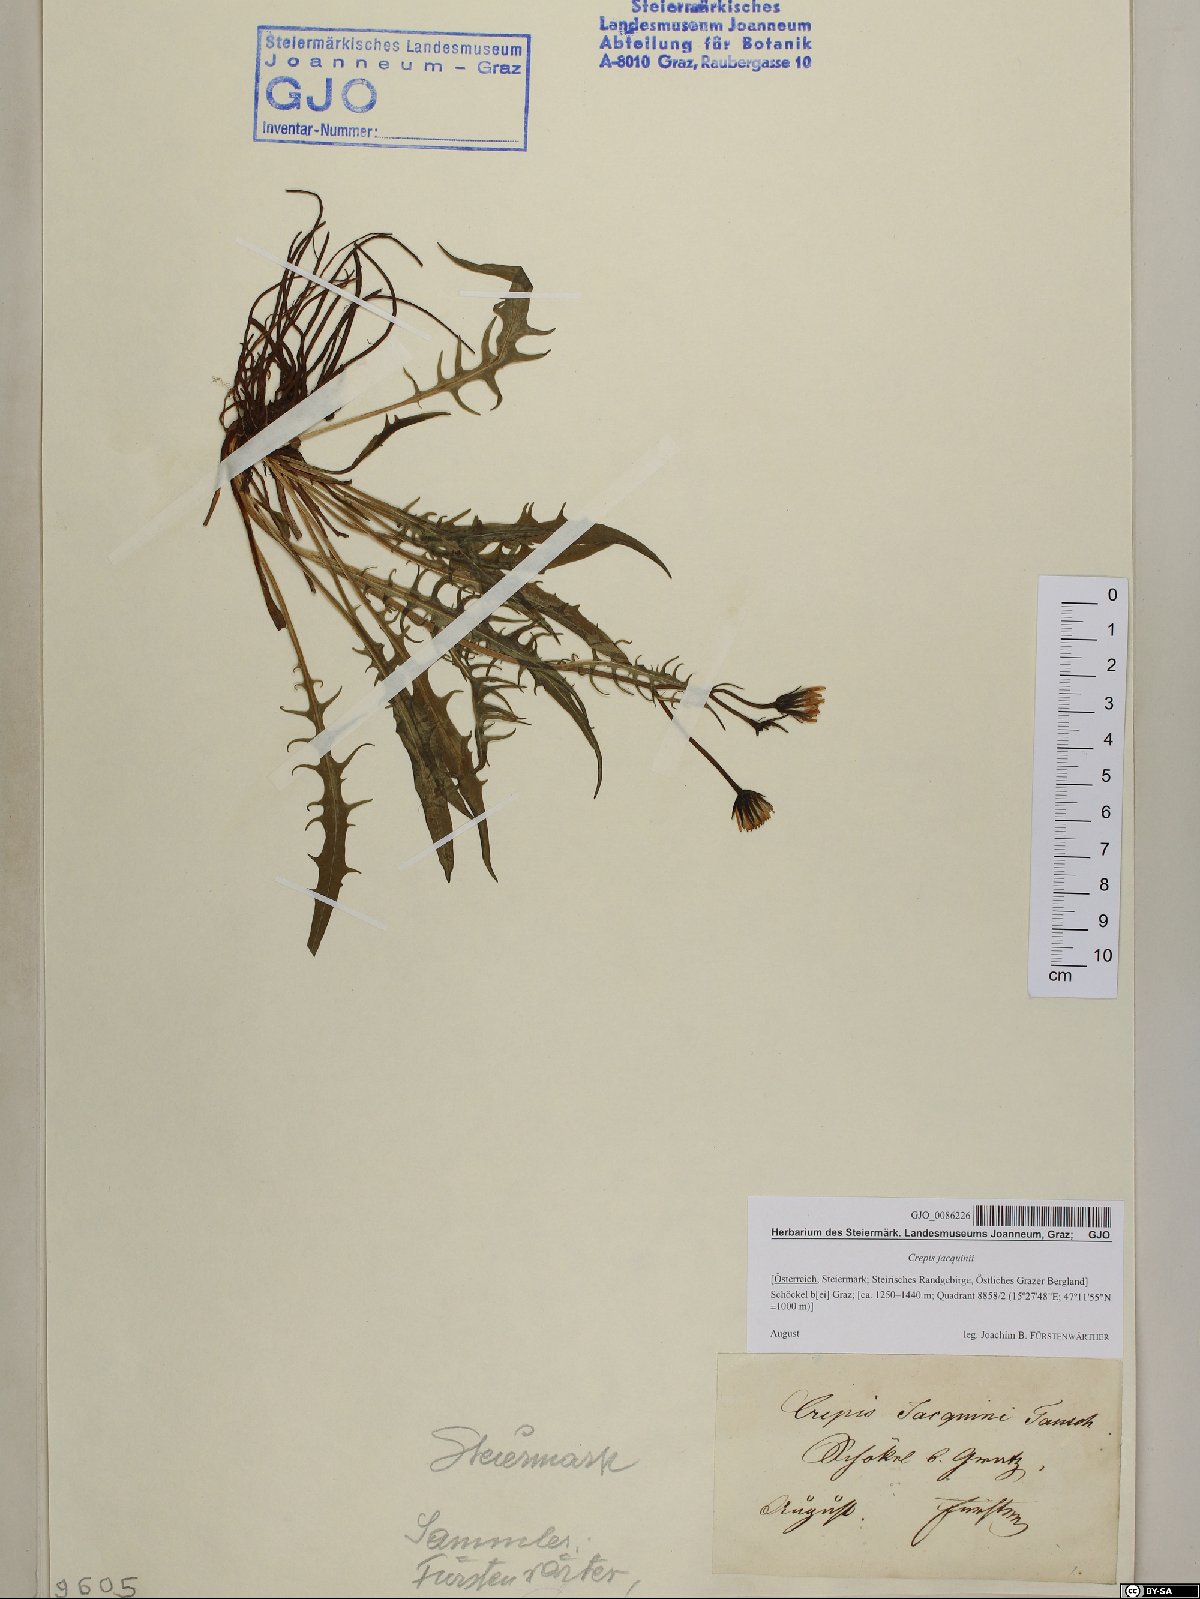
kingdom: Plantae
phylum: Tracheophyta
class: Magnoliopsida
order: Asterales
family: Asteraceae
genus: Crepis
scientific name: Crepis jacquinii
